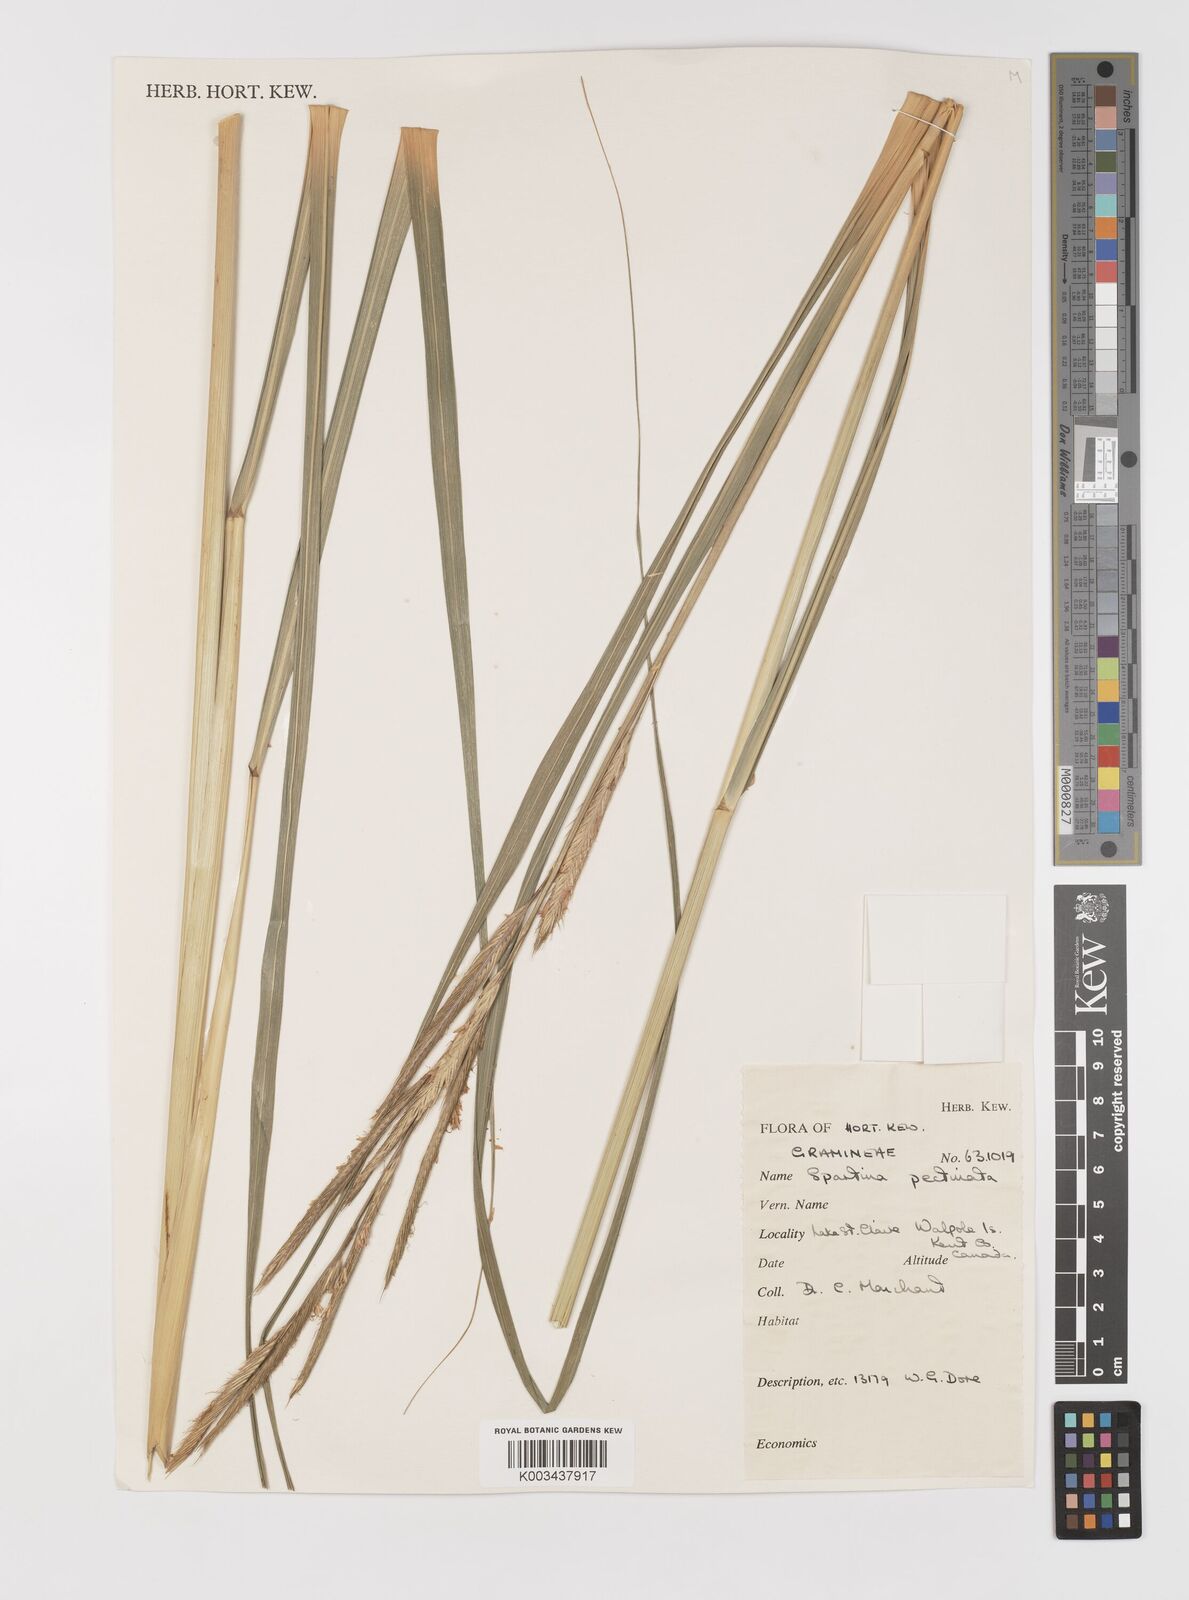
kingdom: Plantae
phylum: Tracheophyta
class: Liliopsida
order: Poales
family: Poaceae
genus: Sporobolus
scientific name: Sporobolus michauxianus
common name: Freshwater cordgrass
